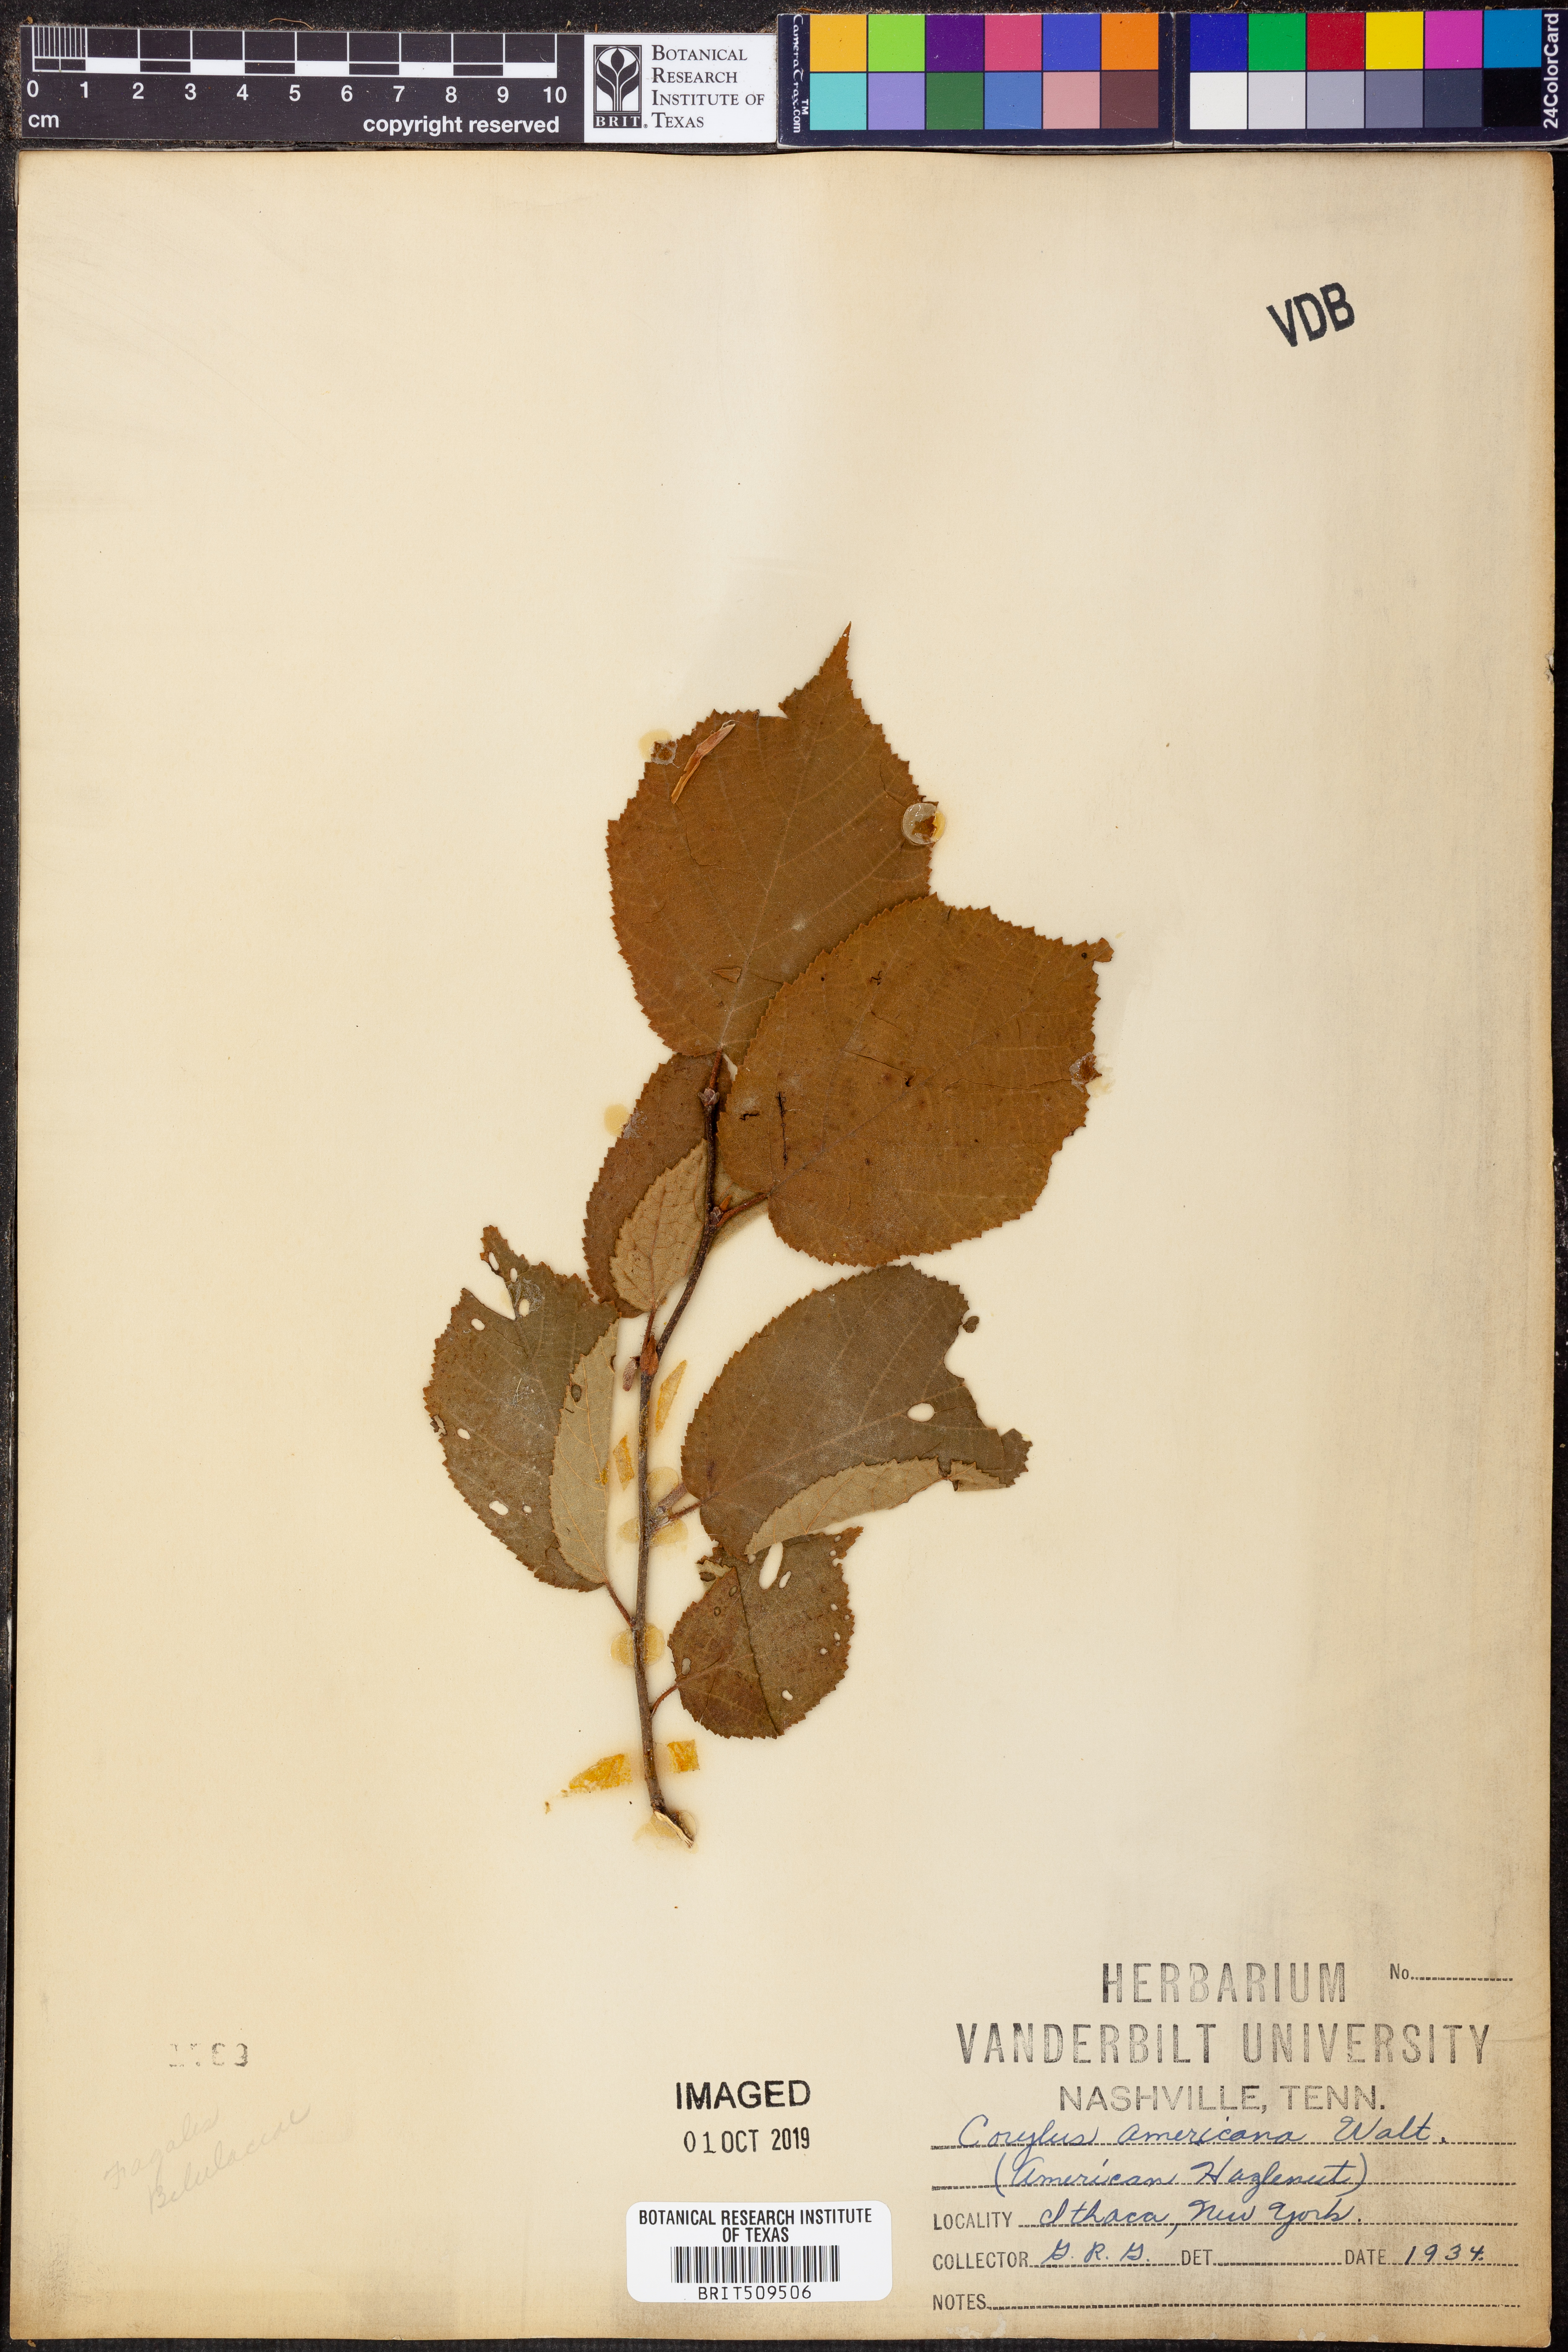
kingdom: Plantae
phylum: Tracheophyta
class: Magnoliopsida
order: Fagales
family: Betulaceae
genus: Corylus
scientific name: Corylus americana
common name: American hazel
